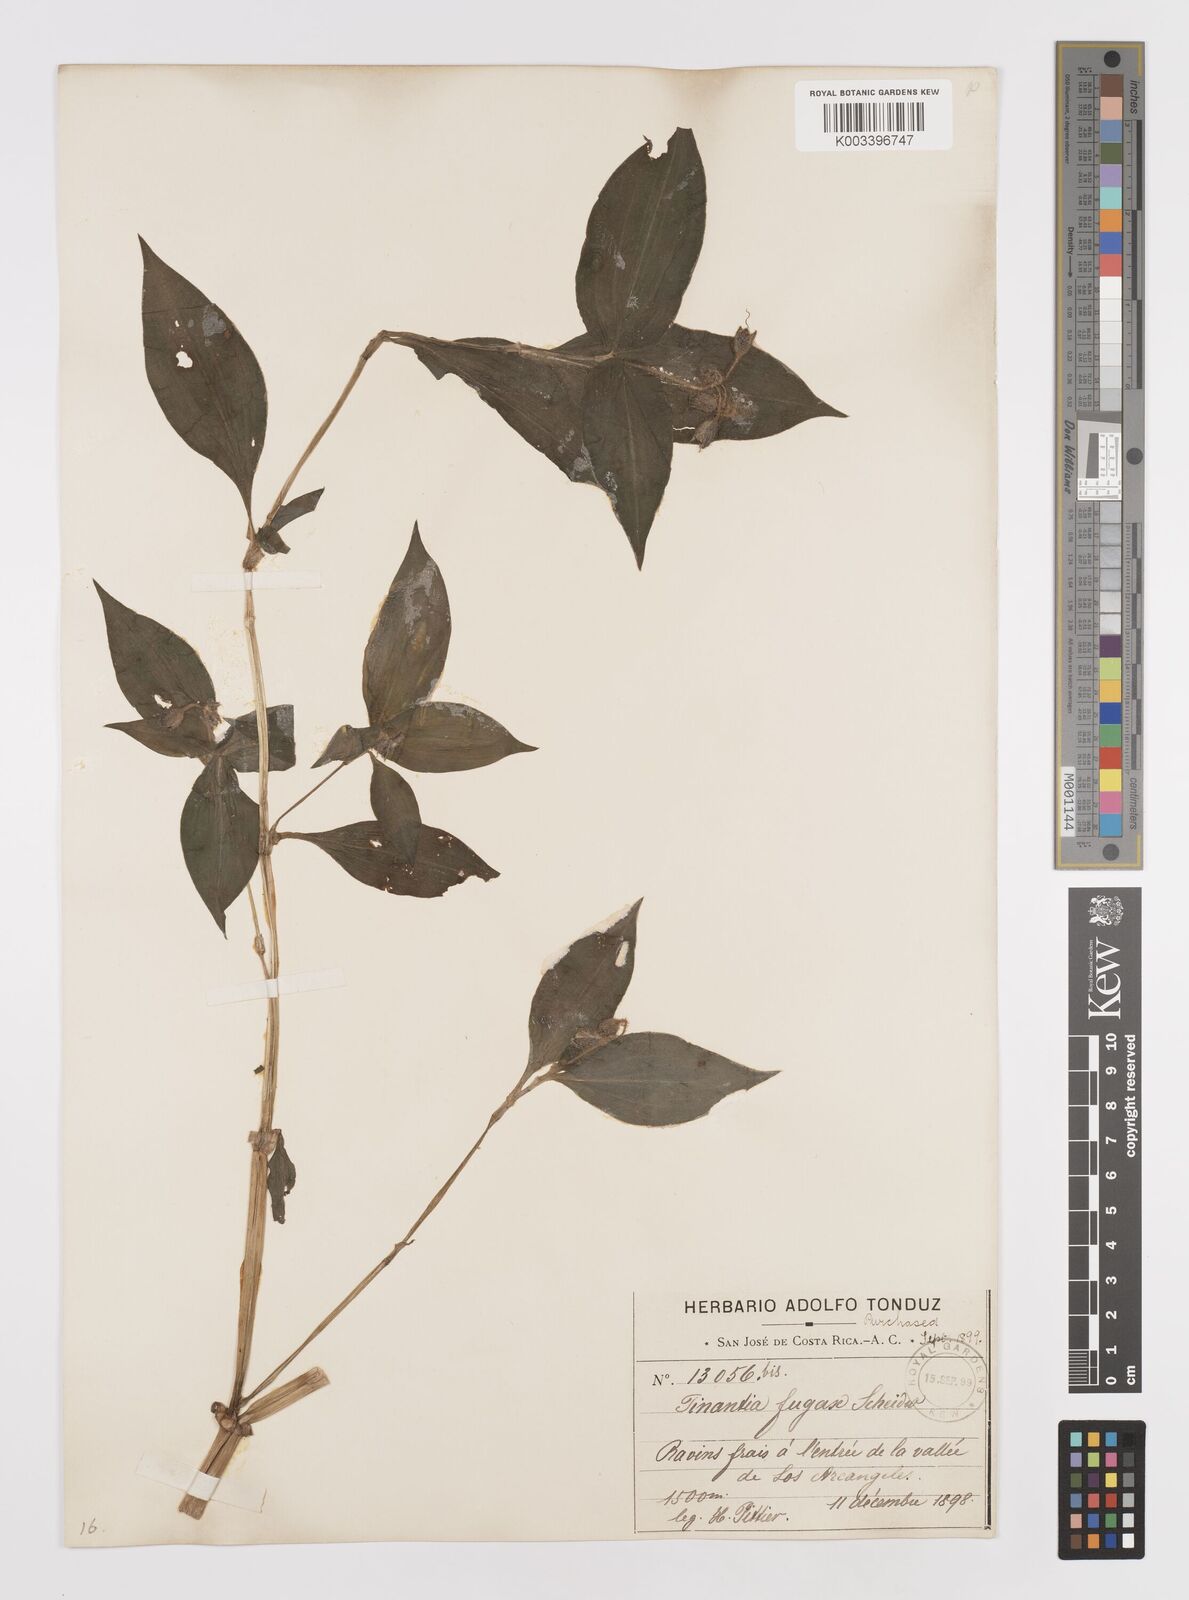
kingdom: Plantae
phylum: Tracheophyta
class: Liliopsida
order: Commelinales
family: Commelinaceae
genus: Tinantia
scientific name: Tinantia erecta
